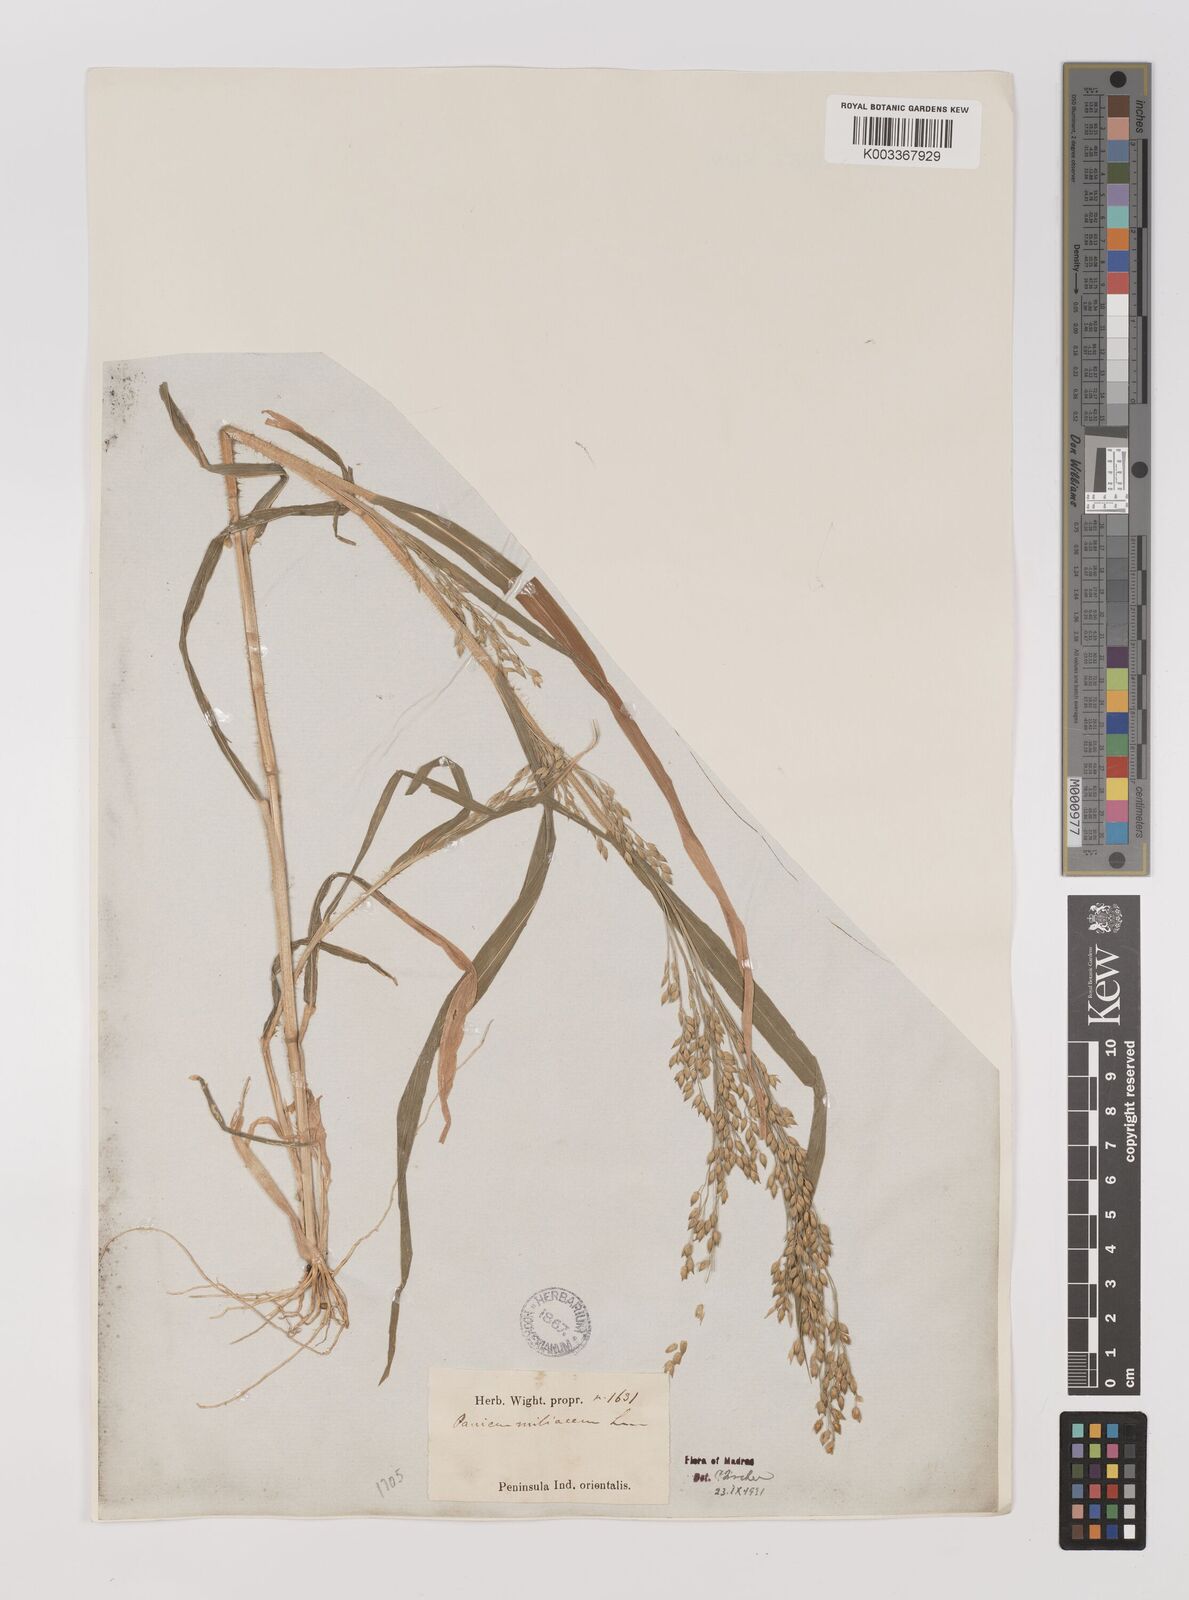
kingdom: Plantae
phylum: Tracheophyta
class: Liliopsida
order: Poales
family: Poaceae
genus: Panicum
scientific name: Panicum miliaceum
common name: Common millet
